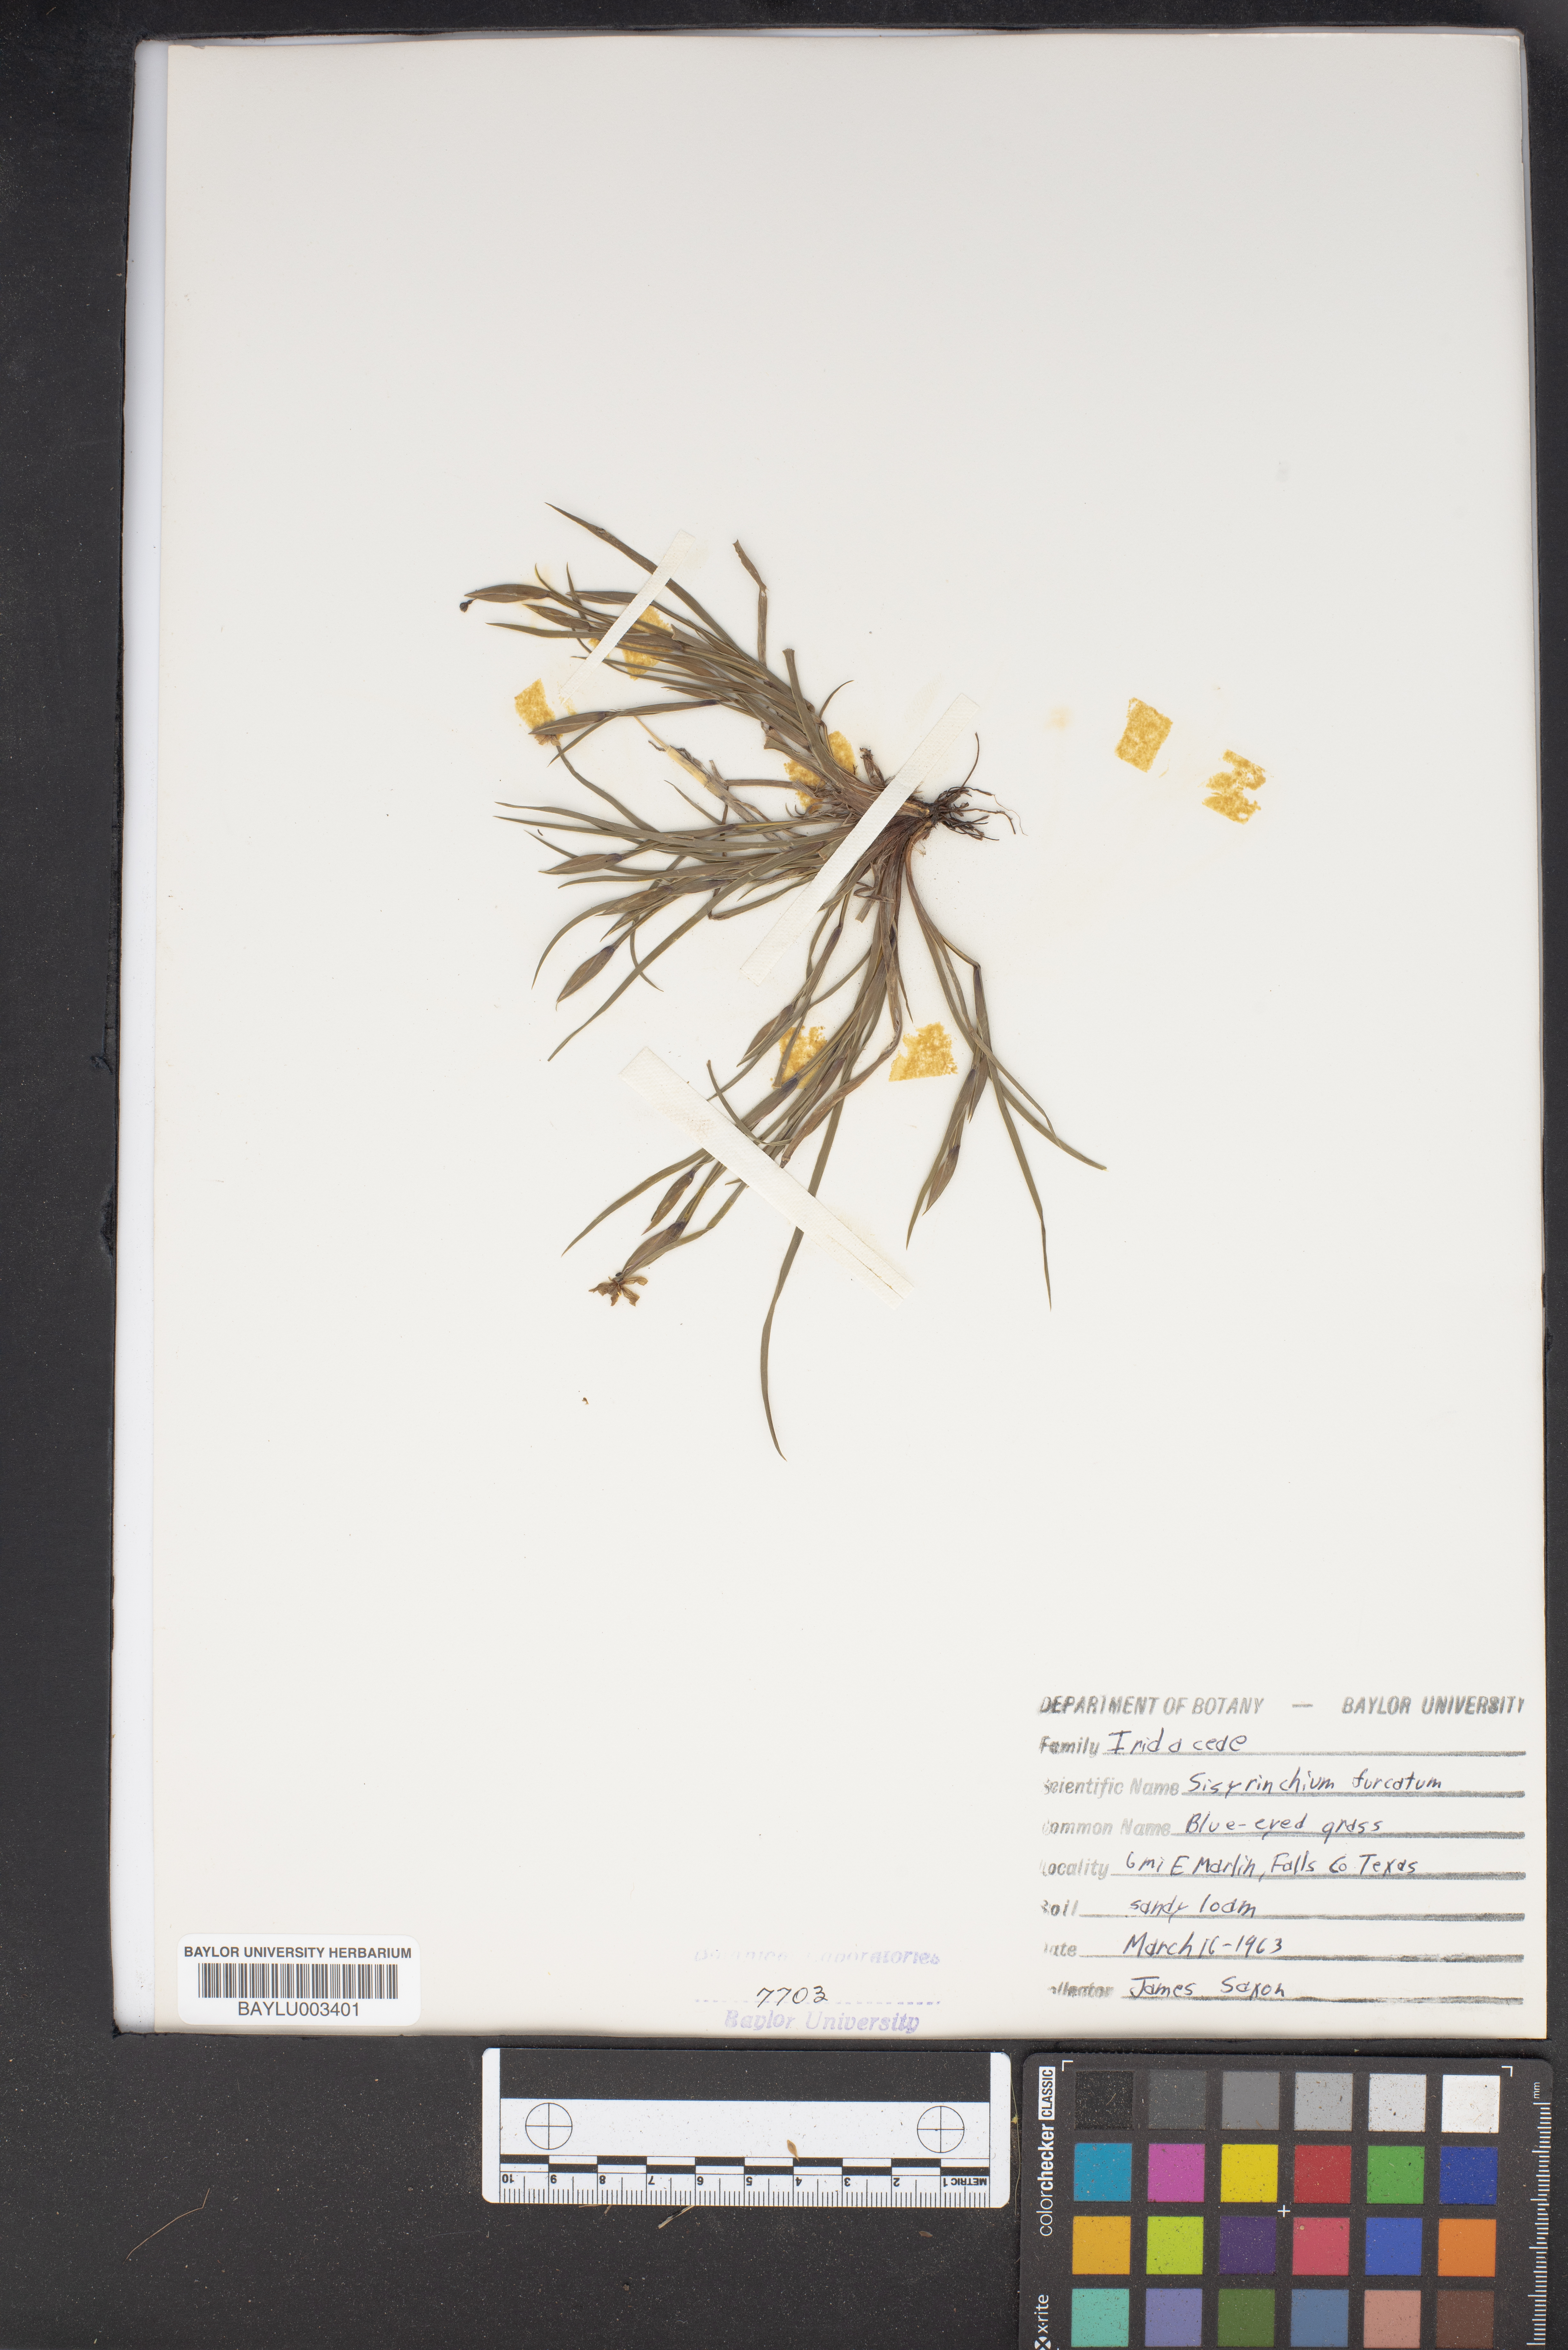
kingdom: Plantae
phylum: Tracheophyta
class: Liliopsida
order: Asparagales
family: Iridaceae
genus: Sisyrinchium
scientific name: Sisyrinchium fuscatum
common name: Coastal plain blue-eyed-grass
